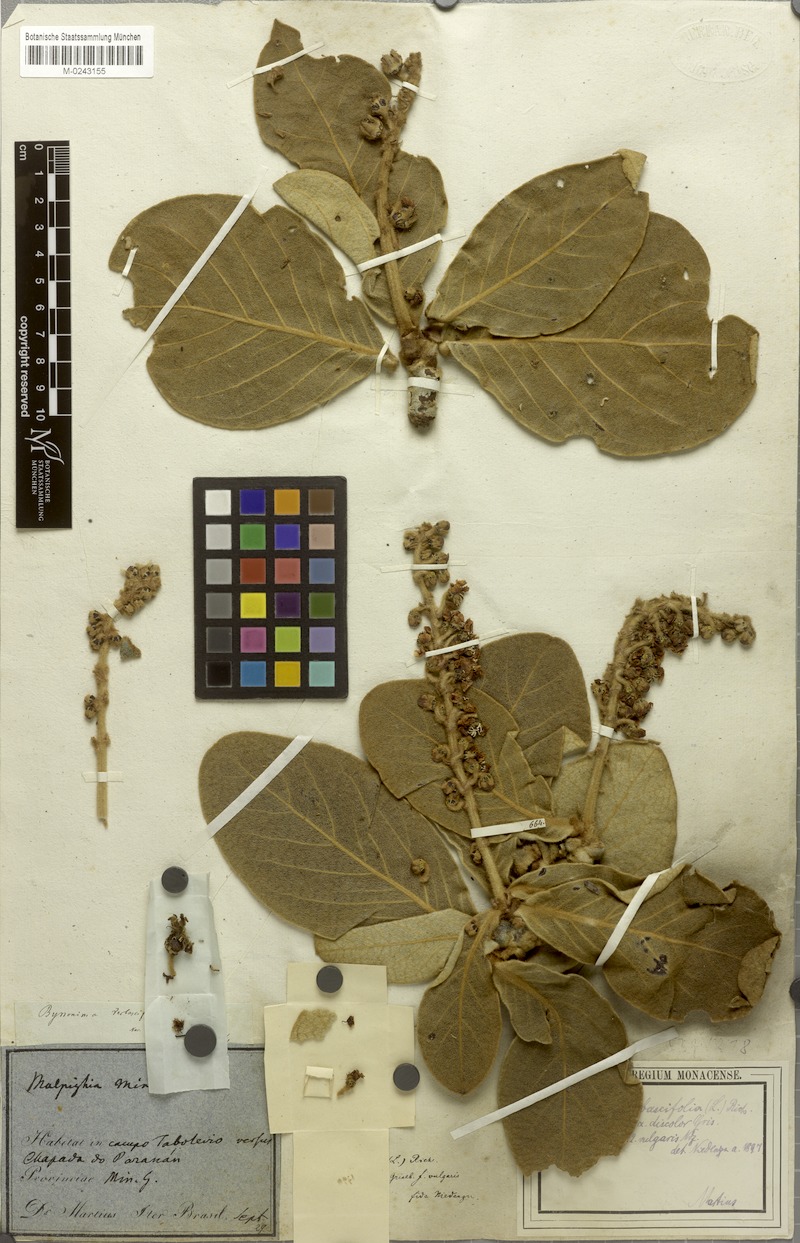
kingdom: Plantae
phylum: Tracheophyta
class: Magnoliopsida
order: Malpighiales
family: Malpighiaceae
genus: Byrsonima
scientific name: Byrsonima verbascifolia
